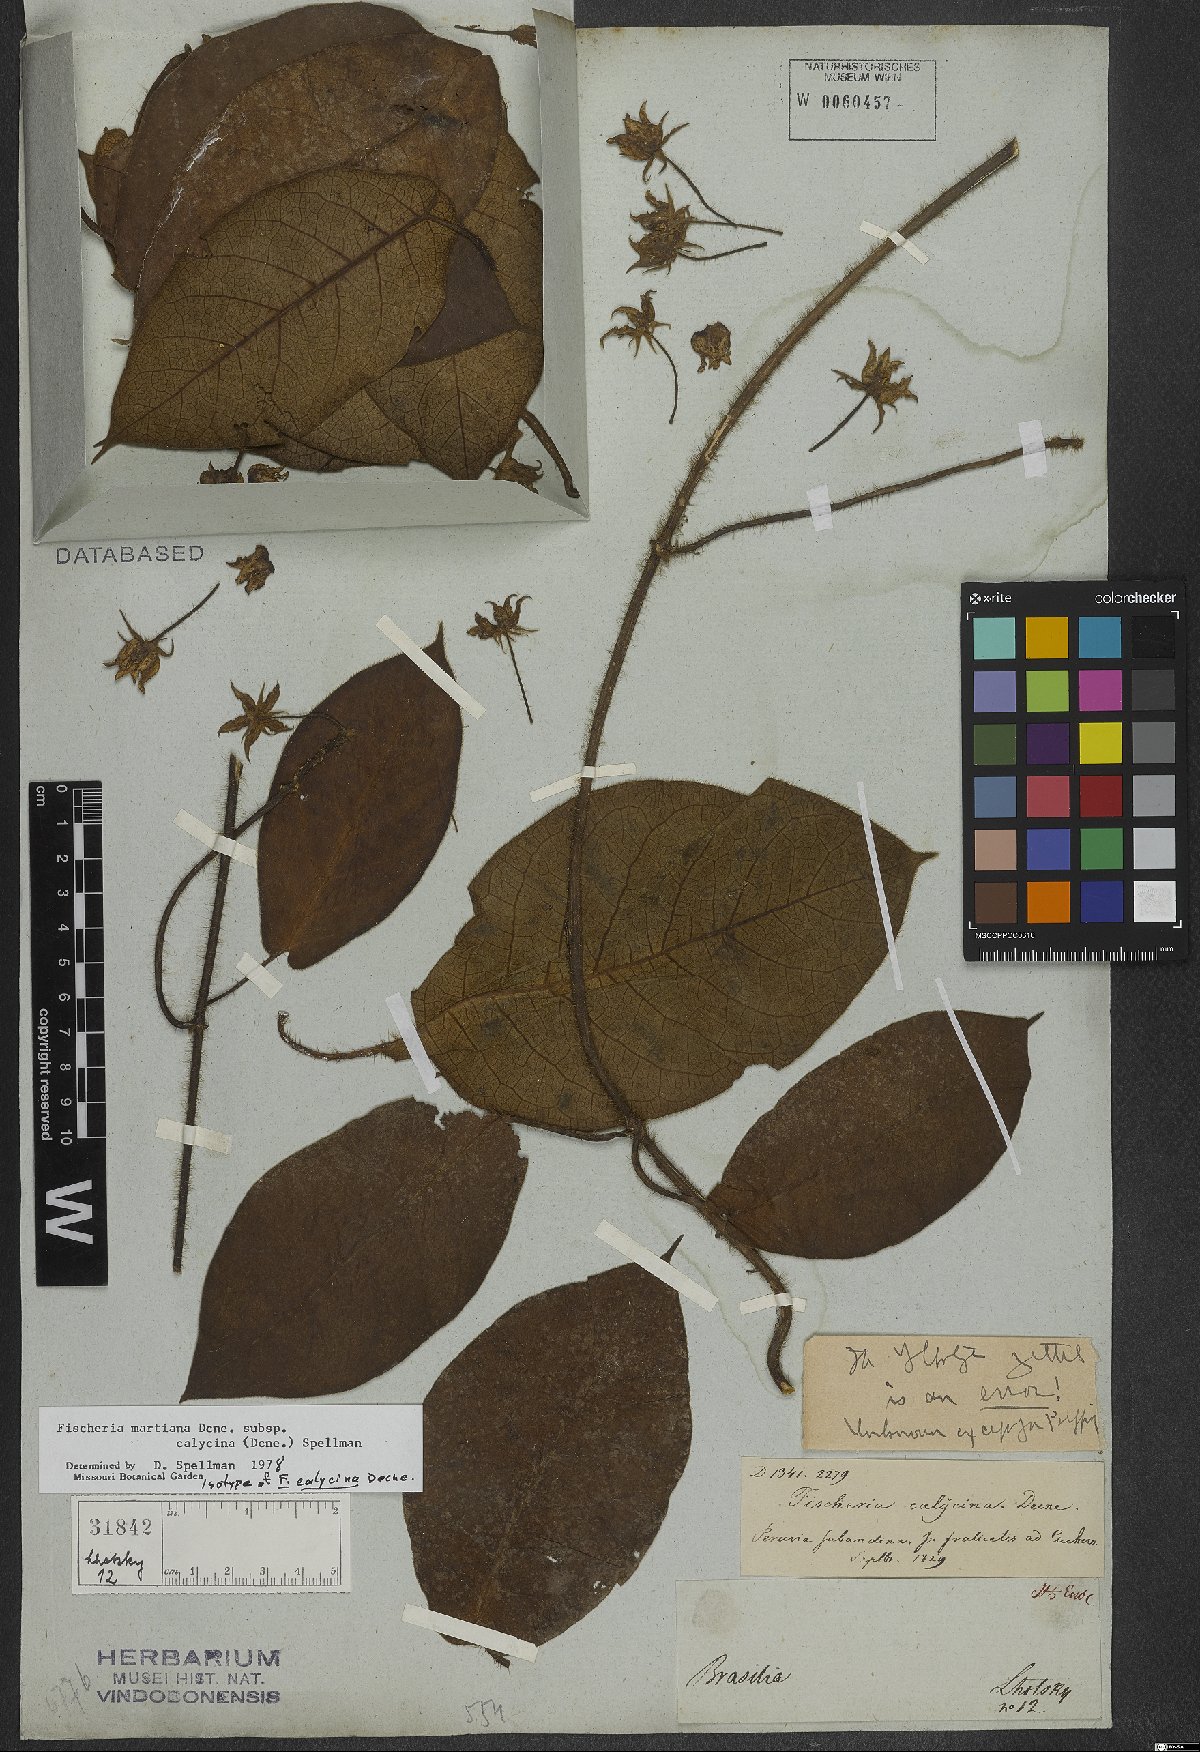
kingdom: Plantae
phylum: Tracheophyta
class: Magnoliopsida
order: Gentianales
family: Apocynaceae
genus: Fischeria
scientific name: Fischeria stellata
